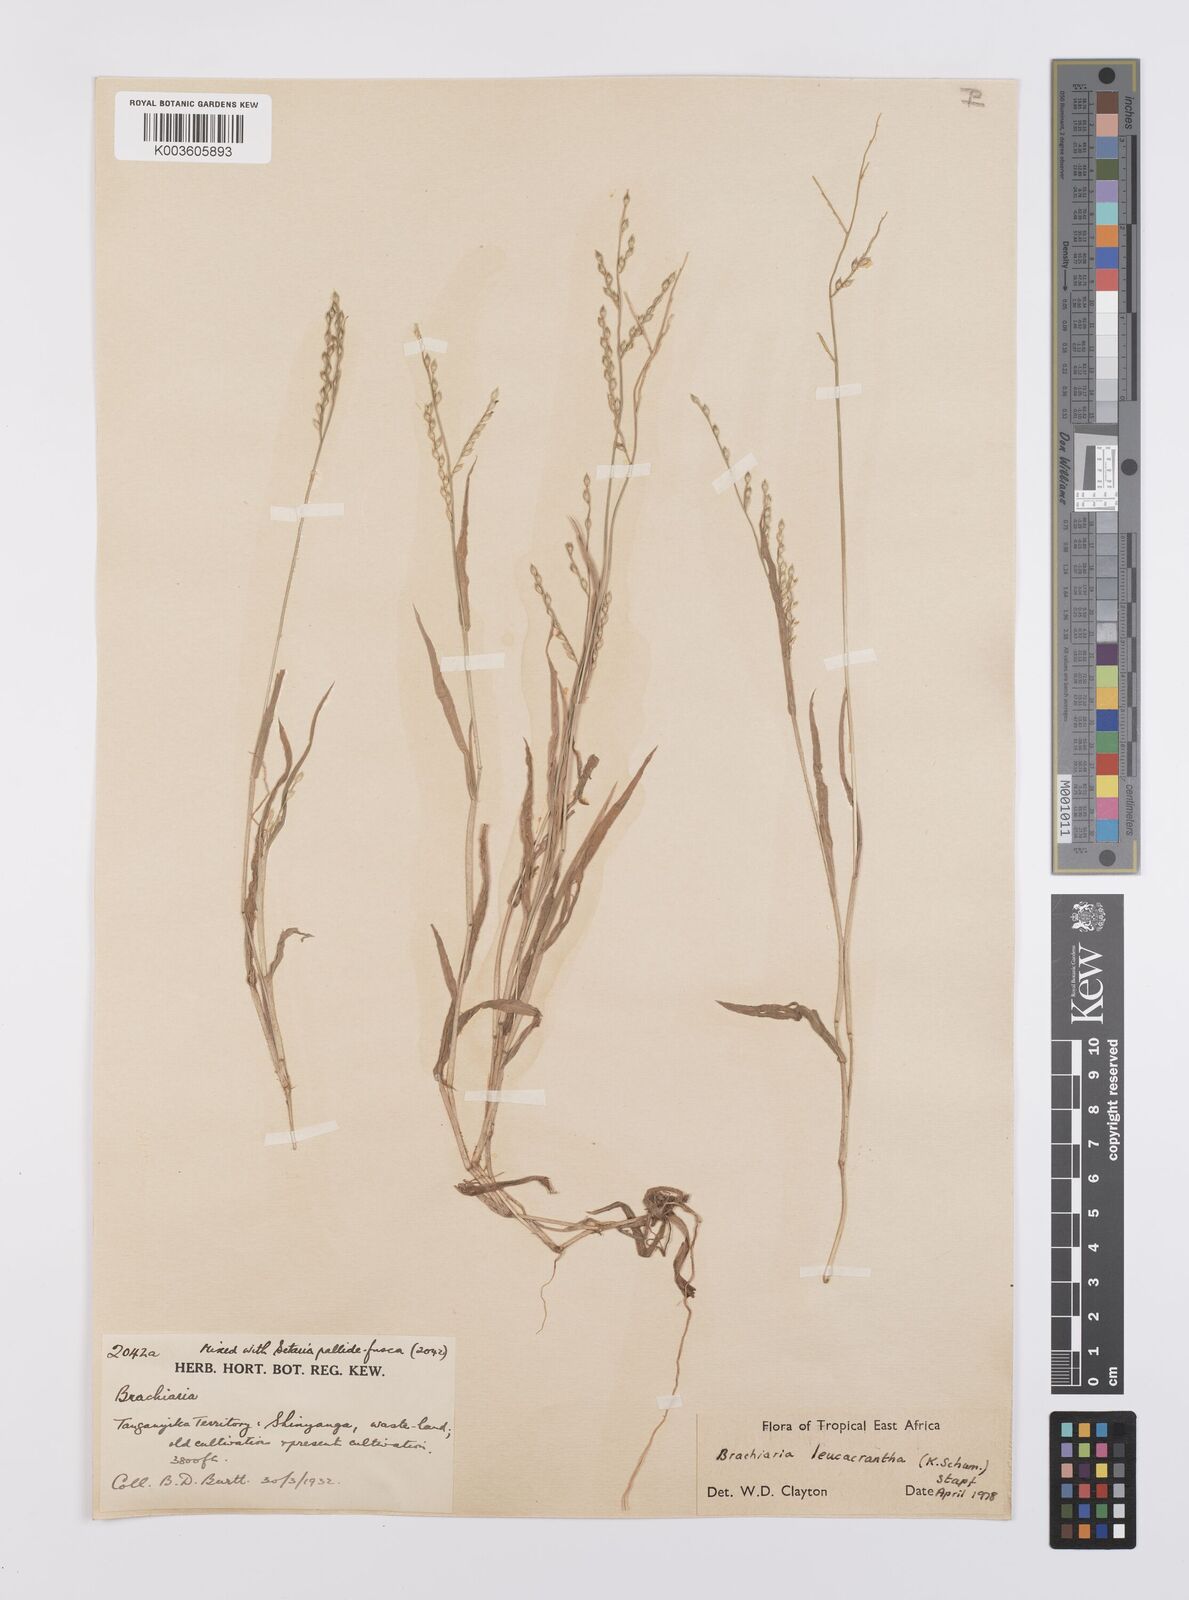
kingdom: Plantae
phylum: Tracheophyta
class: Liliopsida
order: Poales
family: Poaceae
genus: Urochloa
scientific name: Urochloa xantholeuca
